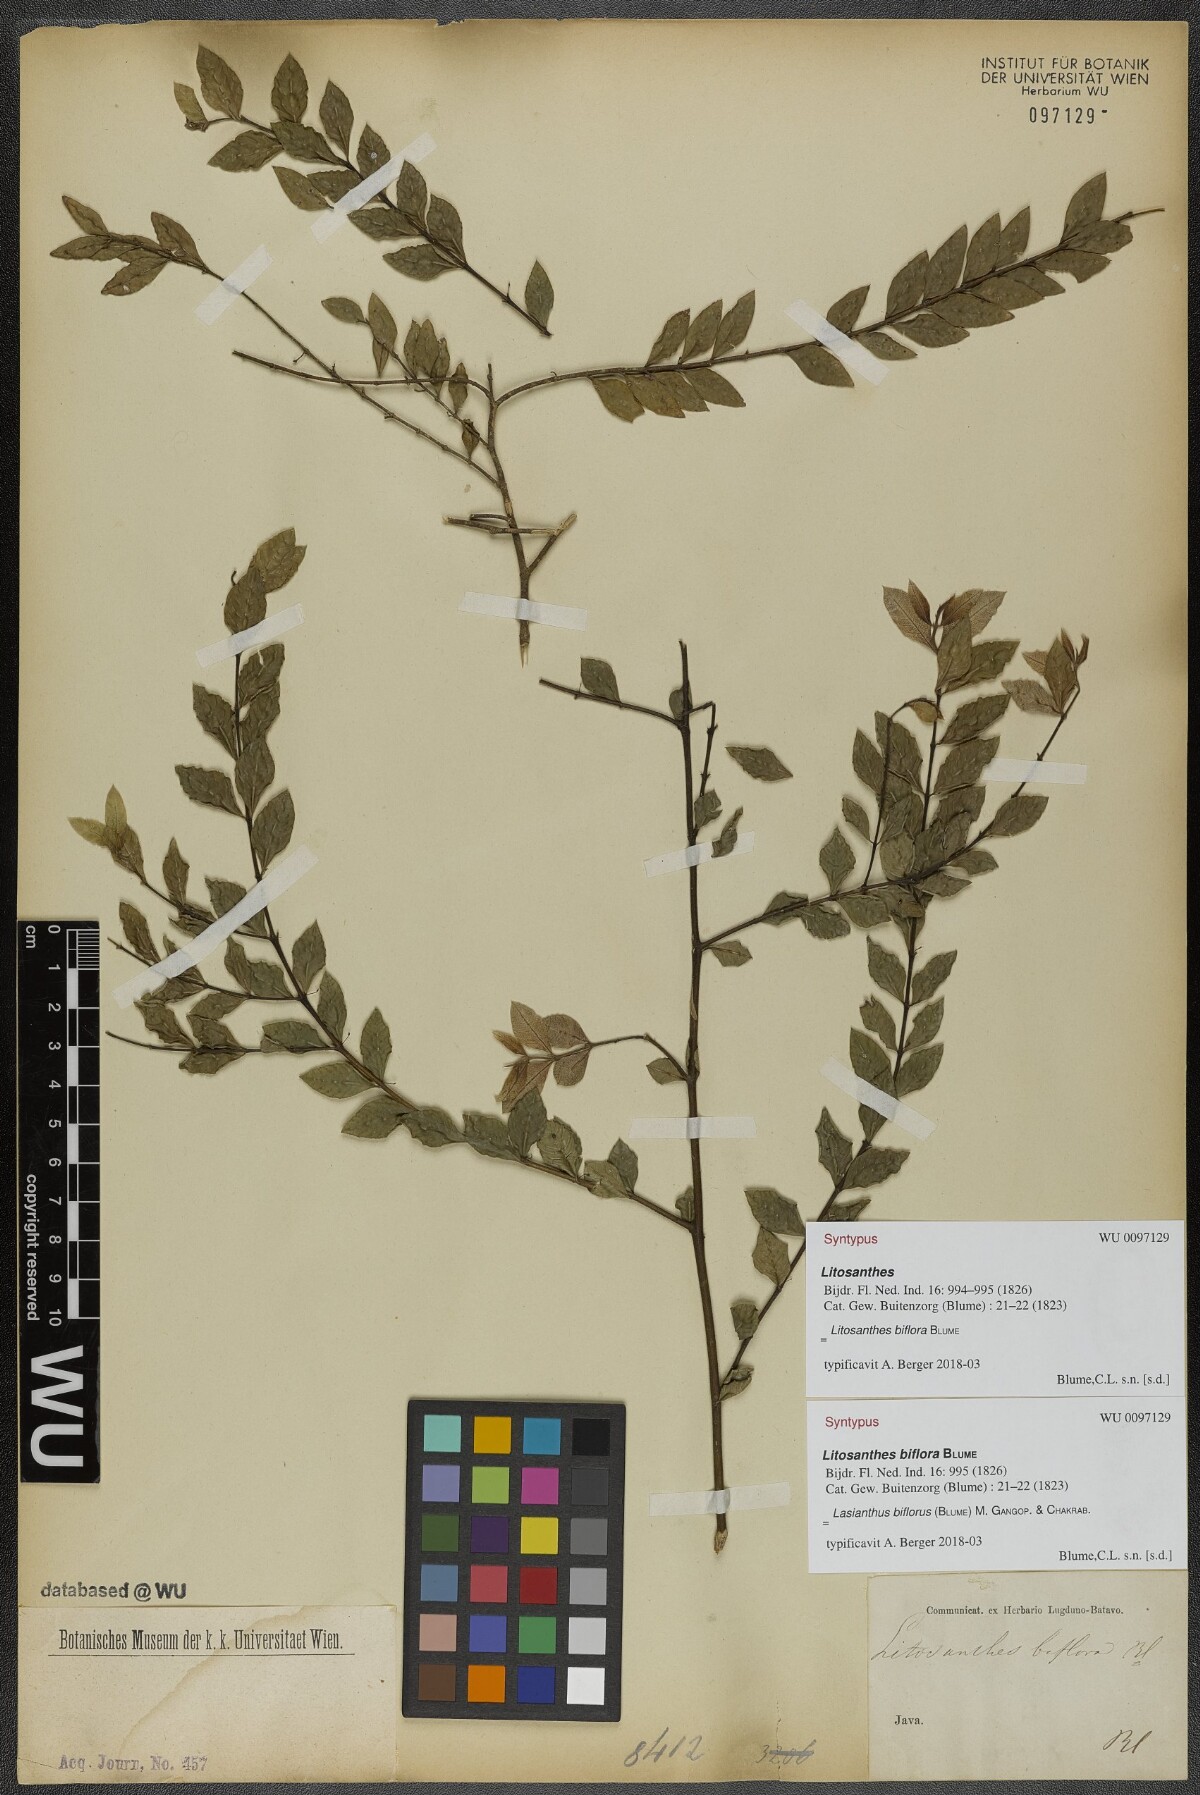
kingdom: Plantae
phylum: Tracheophyta
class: Magnoliopsida
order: Gentianales
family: Rubiaceae
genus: Lasianthus
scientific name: Lasianthus biflorus
